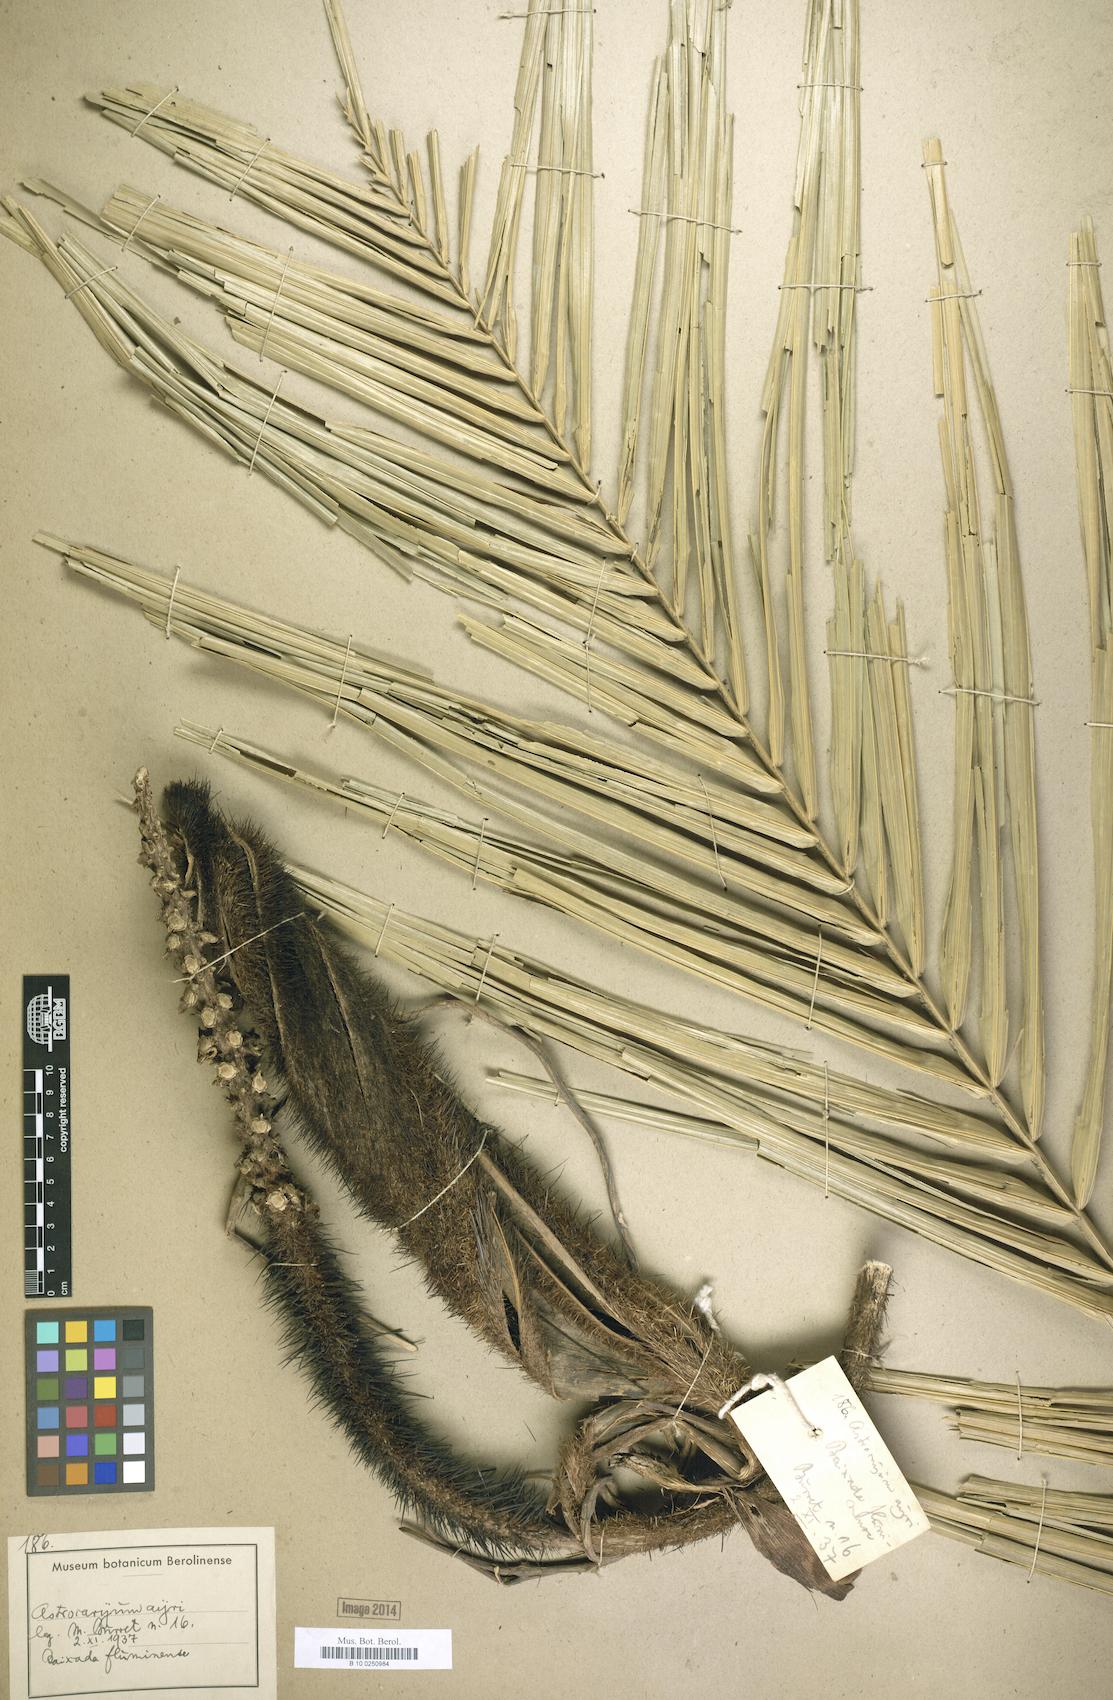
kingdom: Plantae
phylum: Tracheophyta
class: Liliopsida
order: Arecales
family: Arecaceae
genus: Astrocaryum
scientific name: Astrocaryum aculeatissimum
